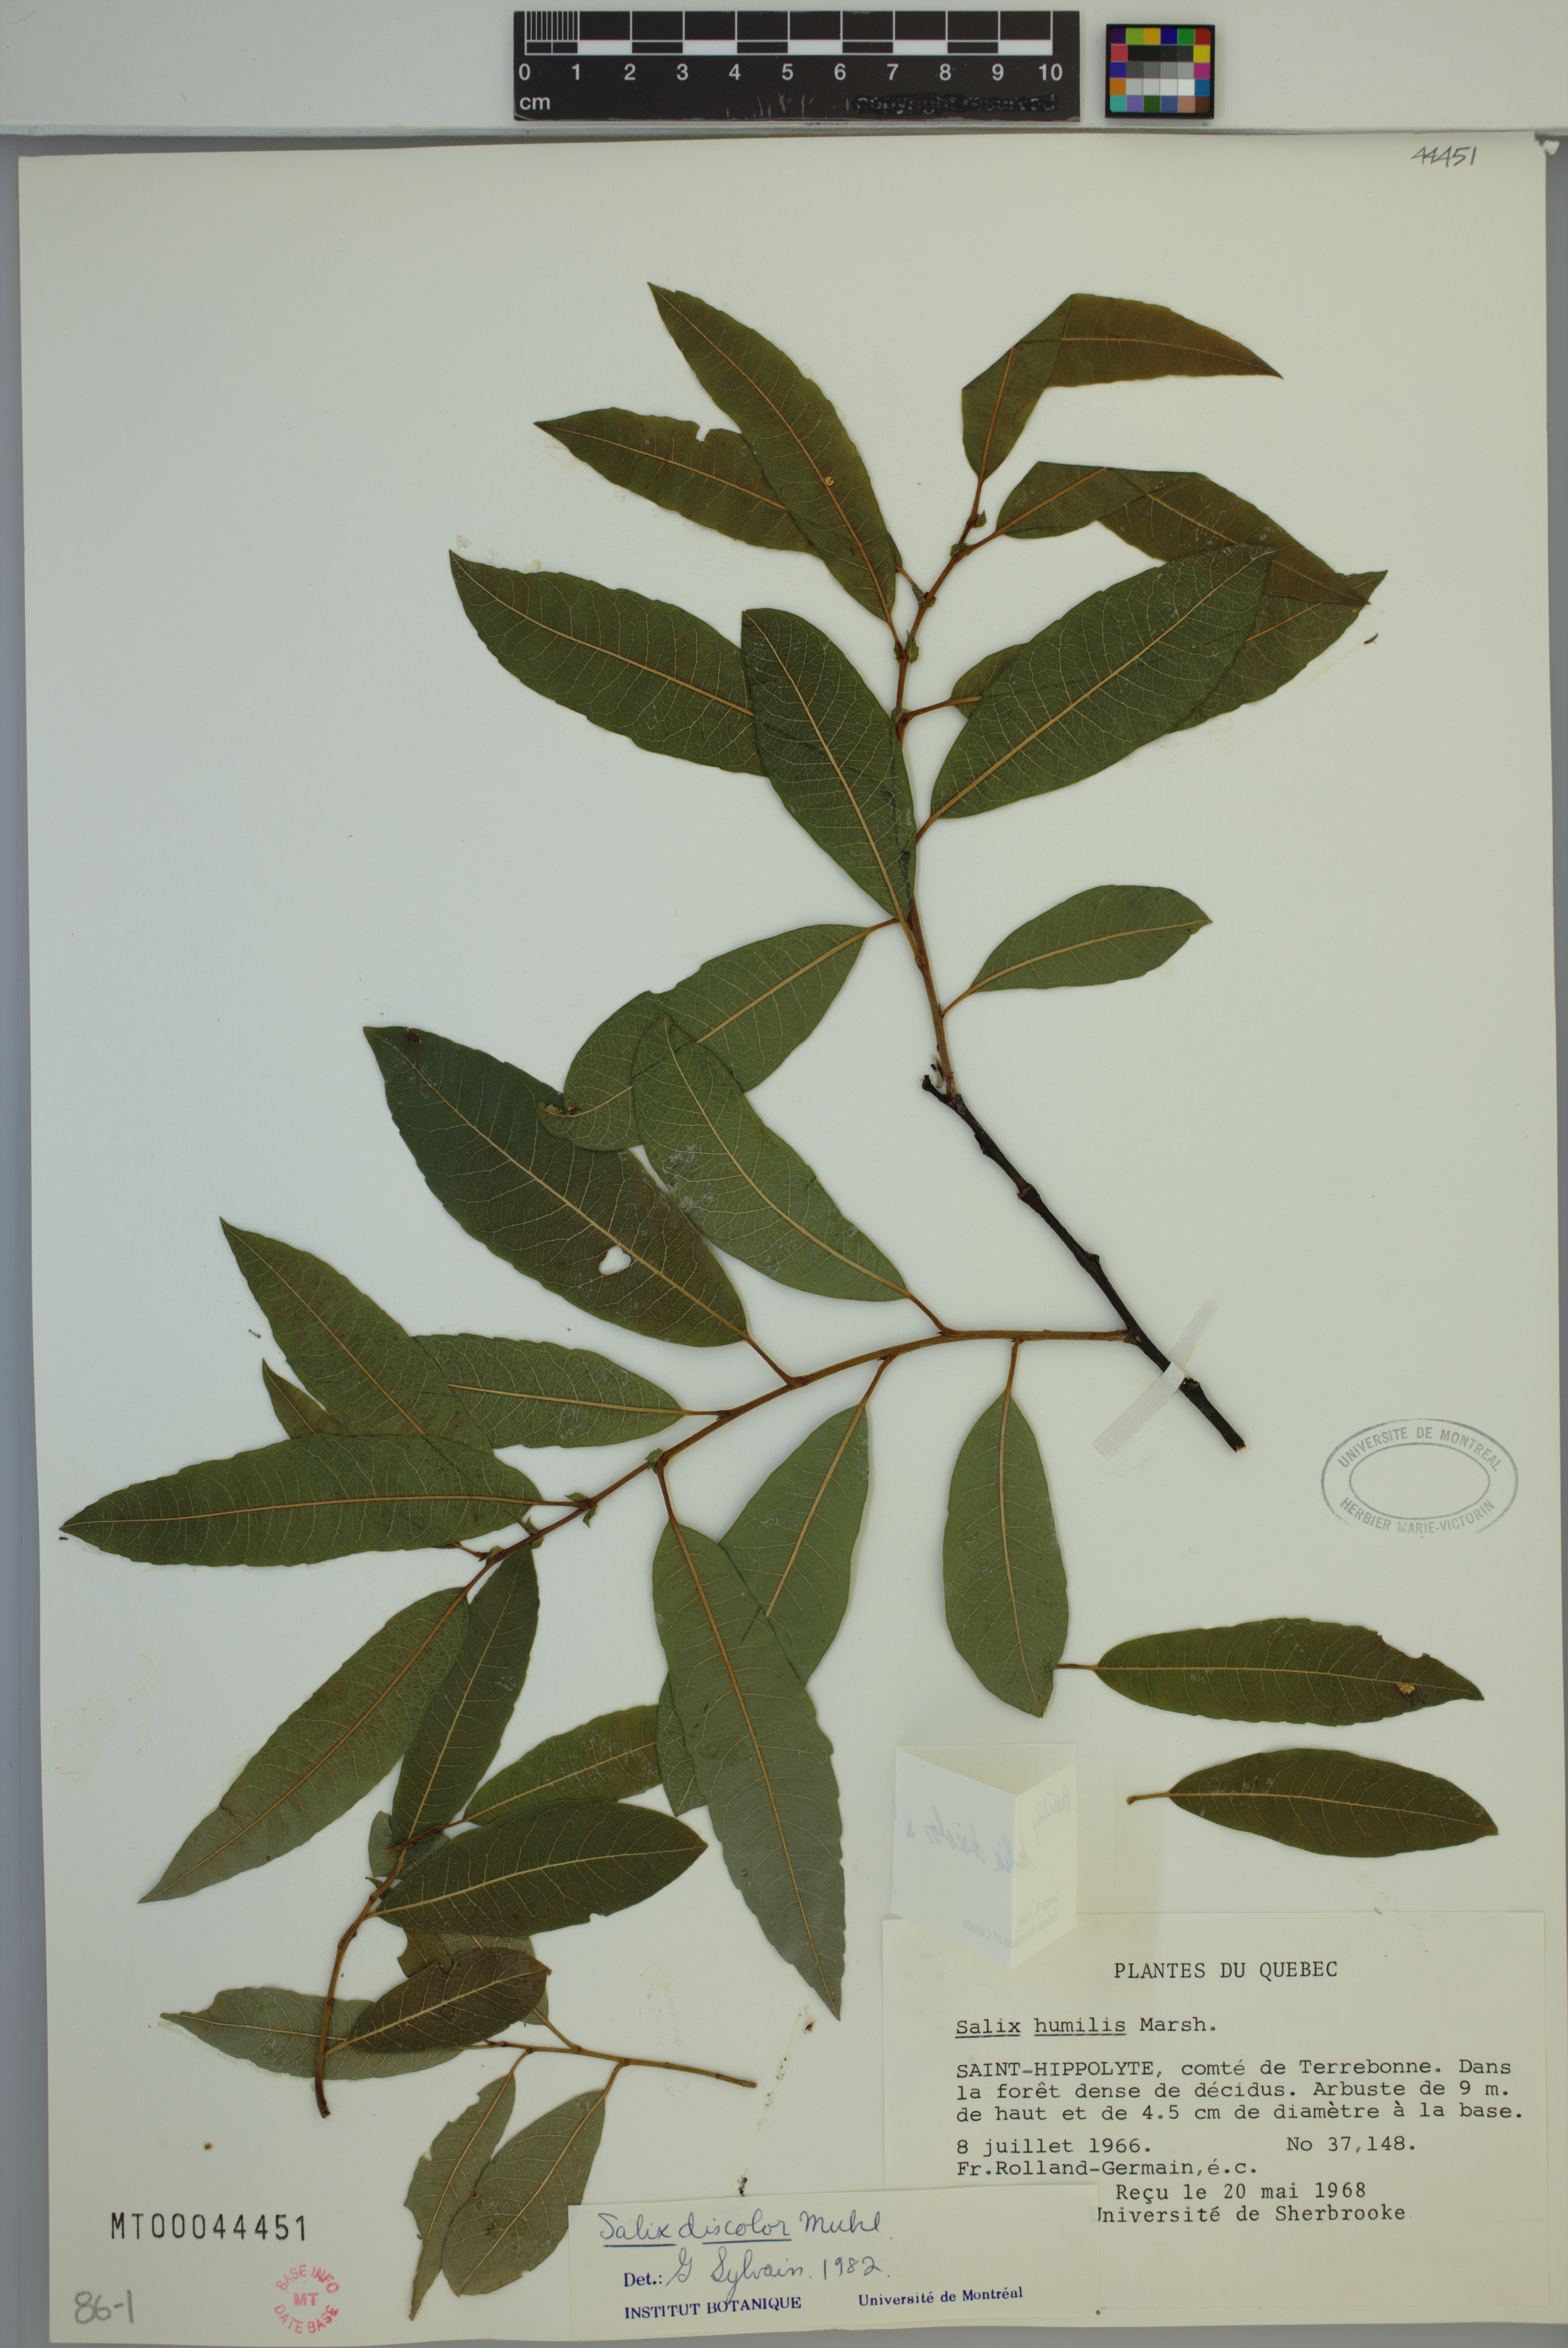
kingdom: Plantae
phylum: Tracheophyta
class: Magnoliopsida
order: Malpighiales
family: Salicaceae
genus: Salix
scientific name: Salix discolor
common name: Glaucous willow
